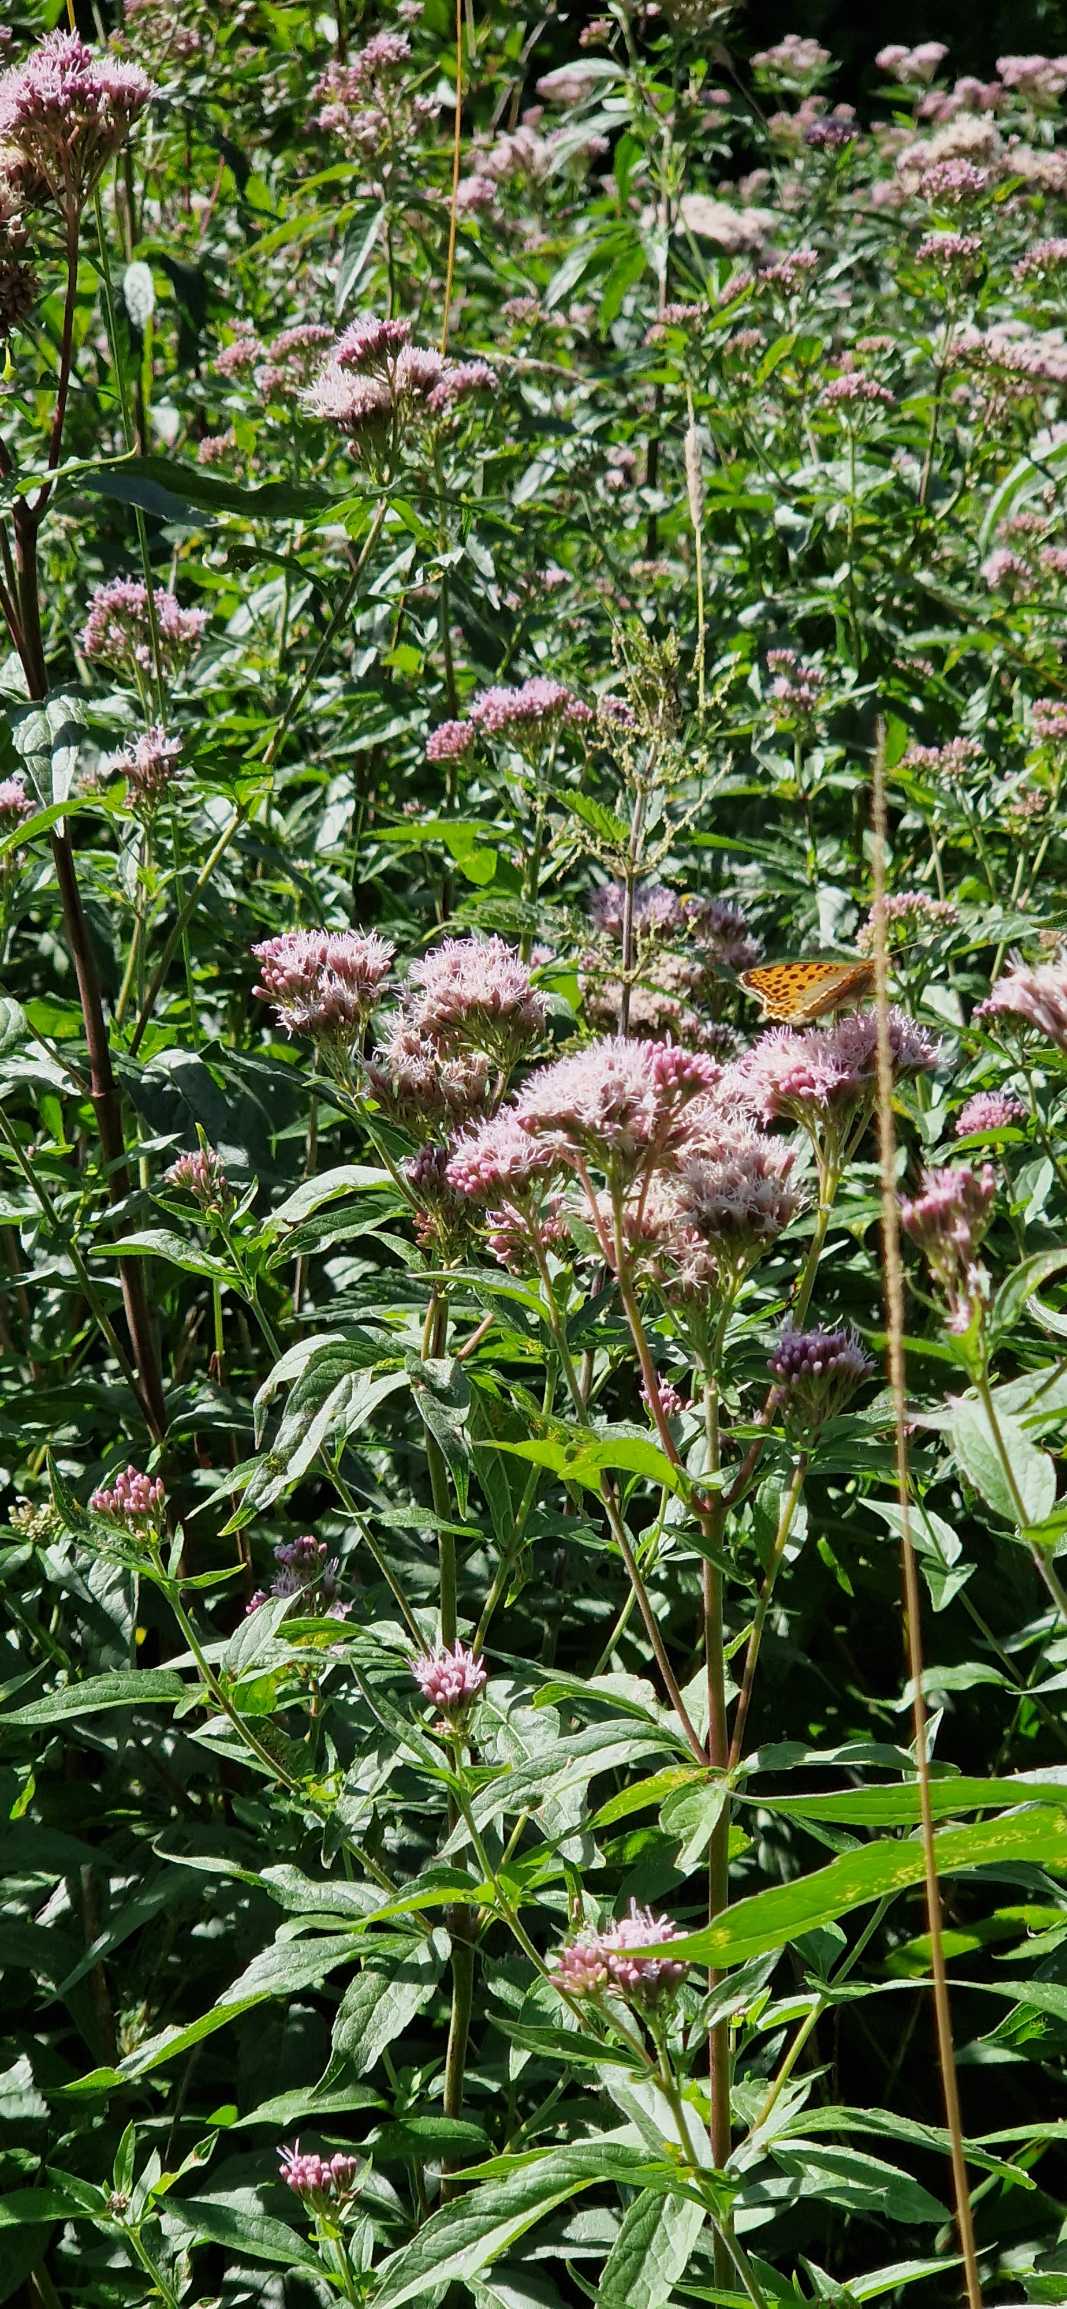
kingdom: Animalia
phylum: Arthropoda
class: Insecta
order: Lepidoptera
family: Nymphalidae
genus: Issoria
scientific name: Issoria lathonia
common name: Storplettet perlemorsommerfugl
